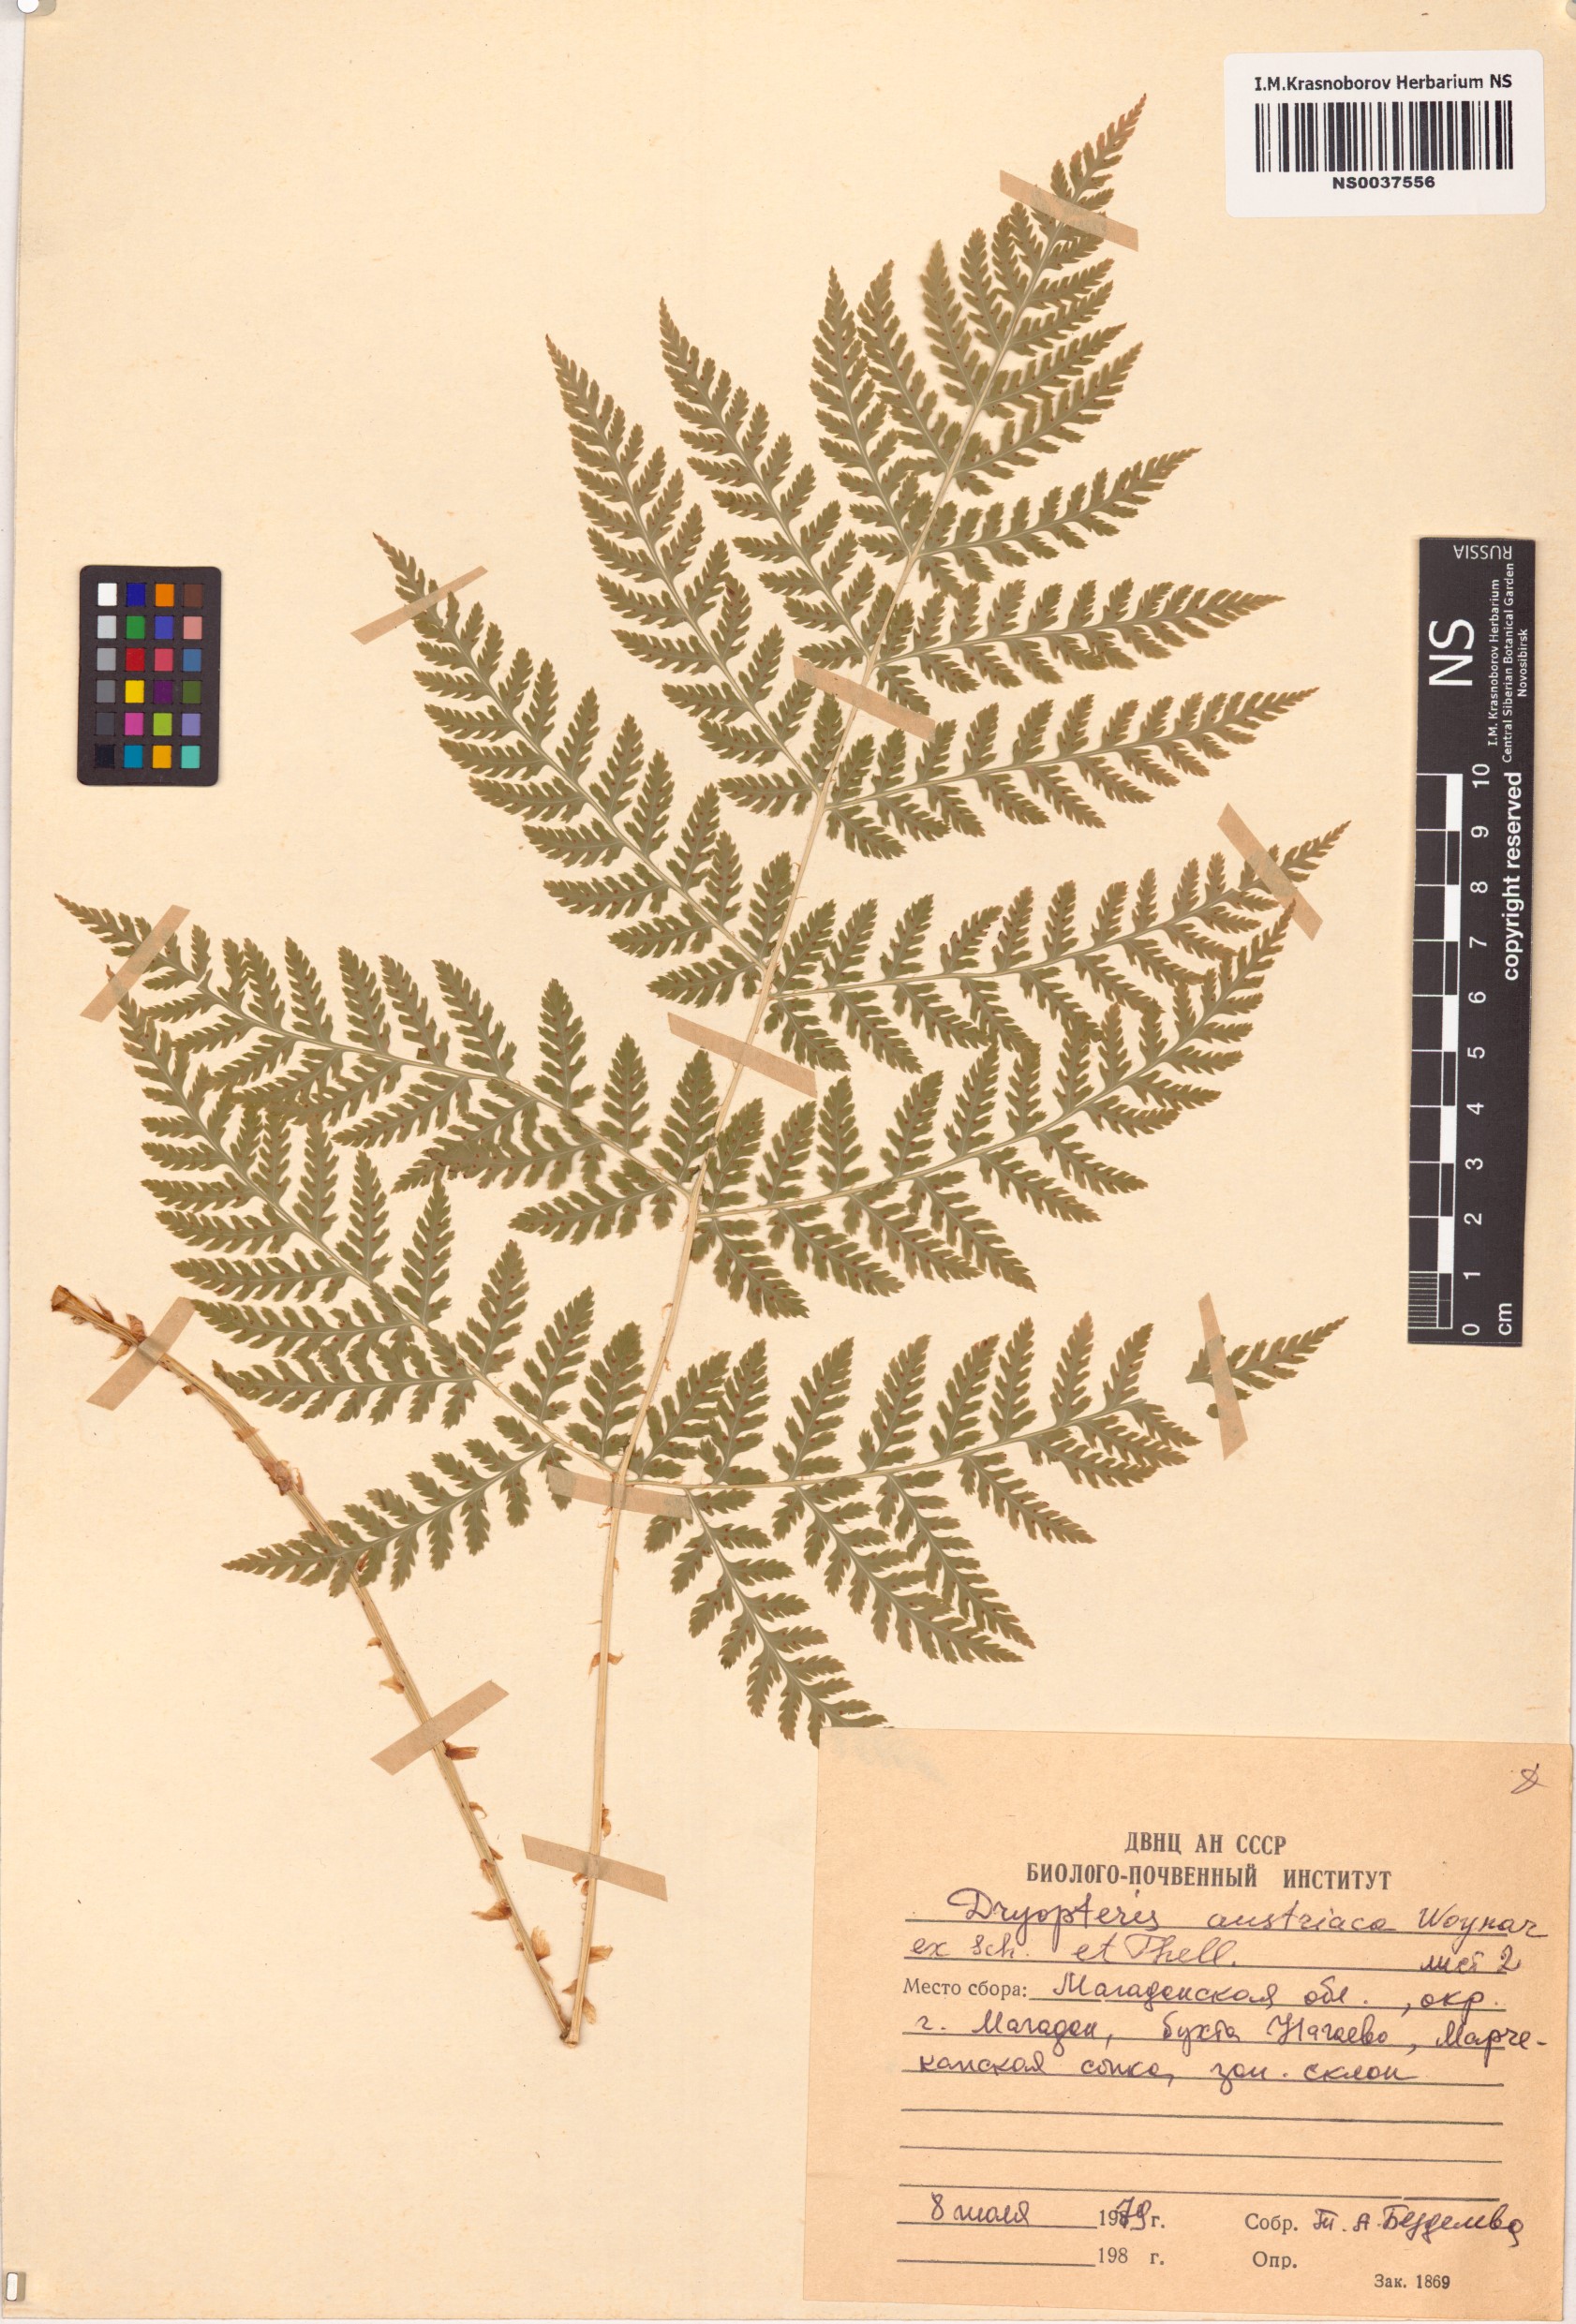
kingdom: Plantae
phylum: Tracheophyta
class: Polypodiopsida
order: Polypodiales
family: Dryopteridaceae
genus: Dryopteris
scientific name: Dryopteris dilatata
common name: Broad buckler-fern
